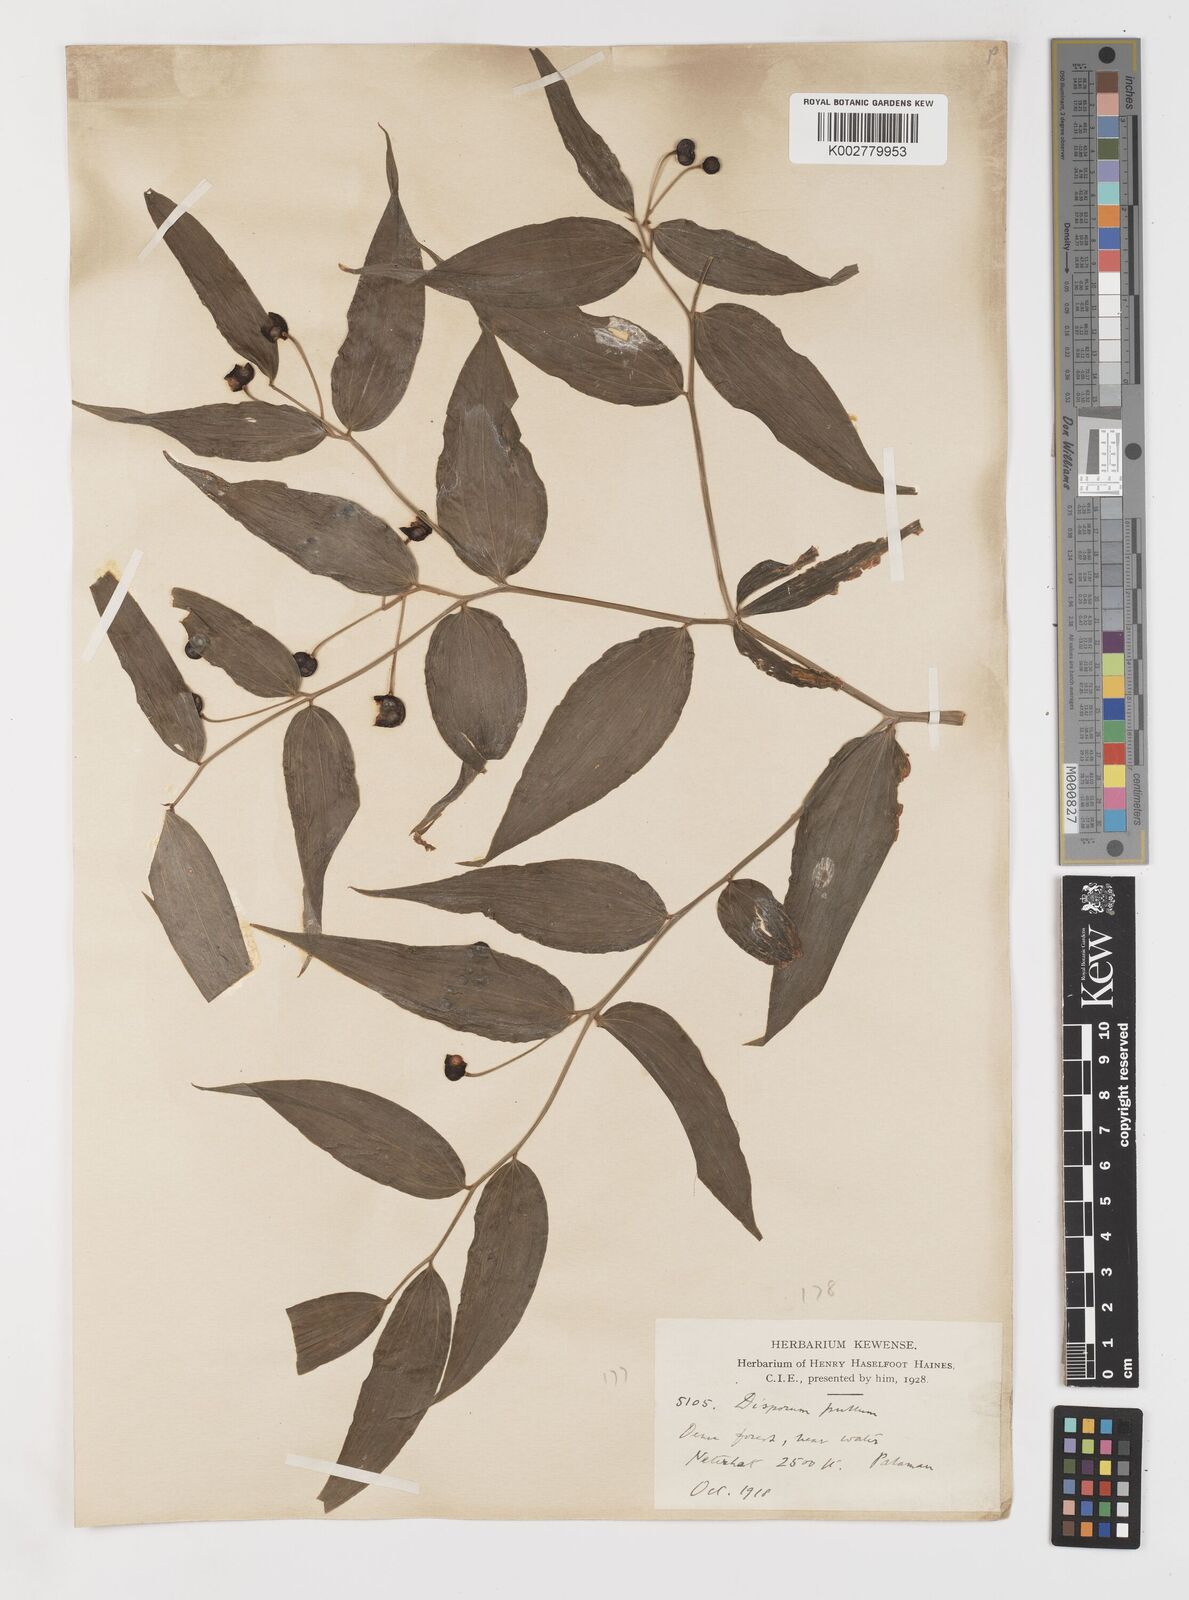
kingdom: Plantae
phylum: Tracheophyta
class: Liliopsida
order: Liliales
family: Colchicaceae
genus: Disporum
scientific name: Disporum cantoniense
